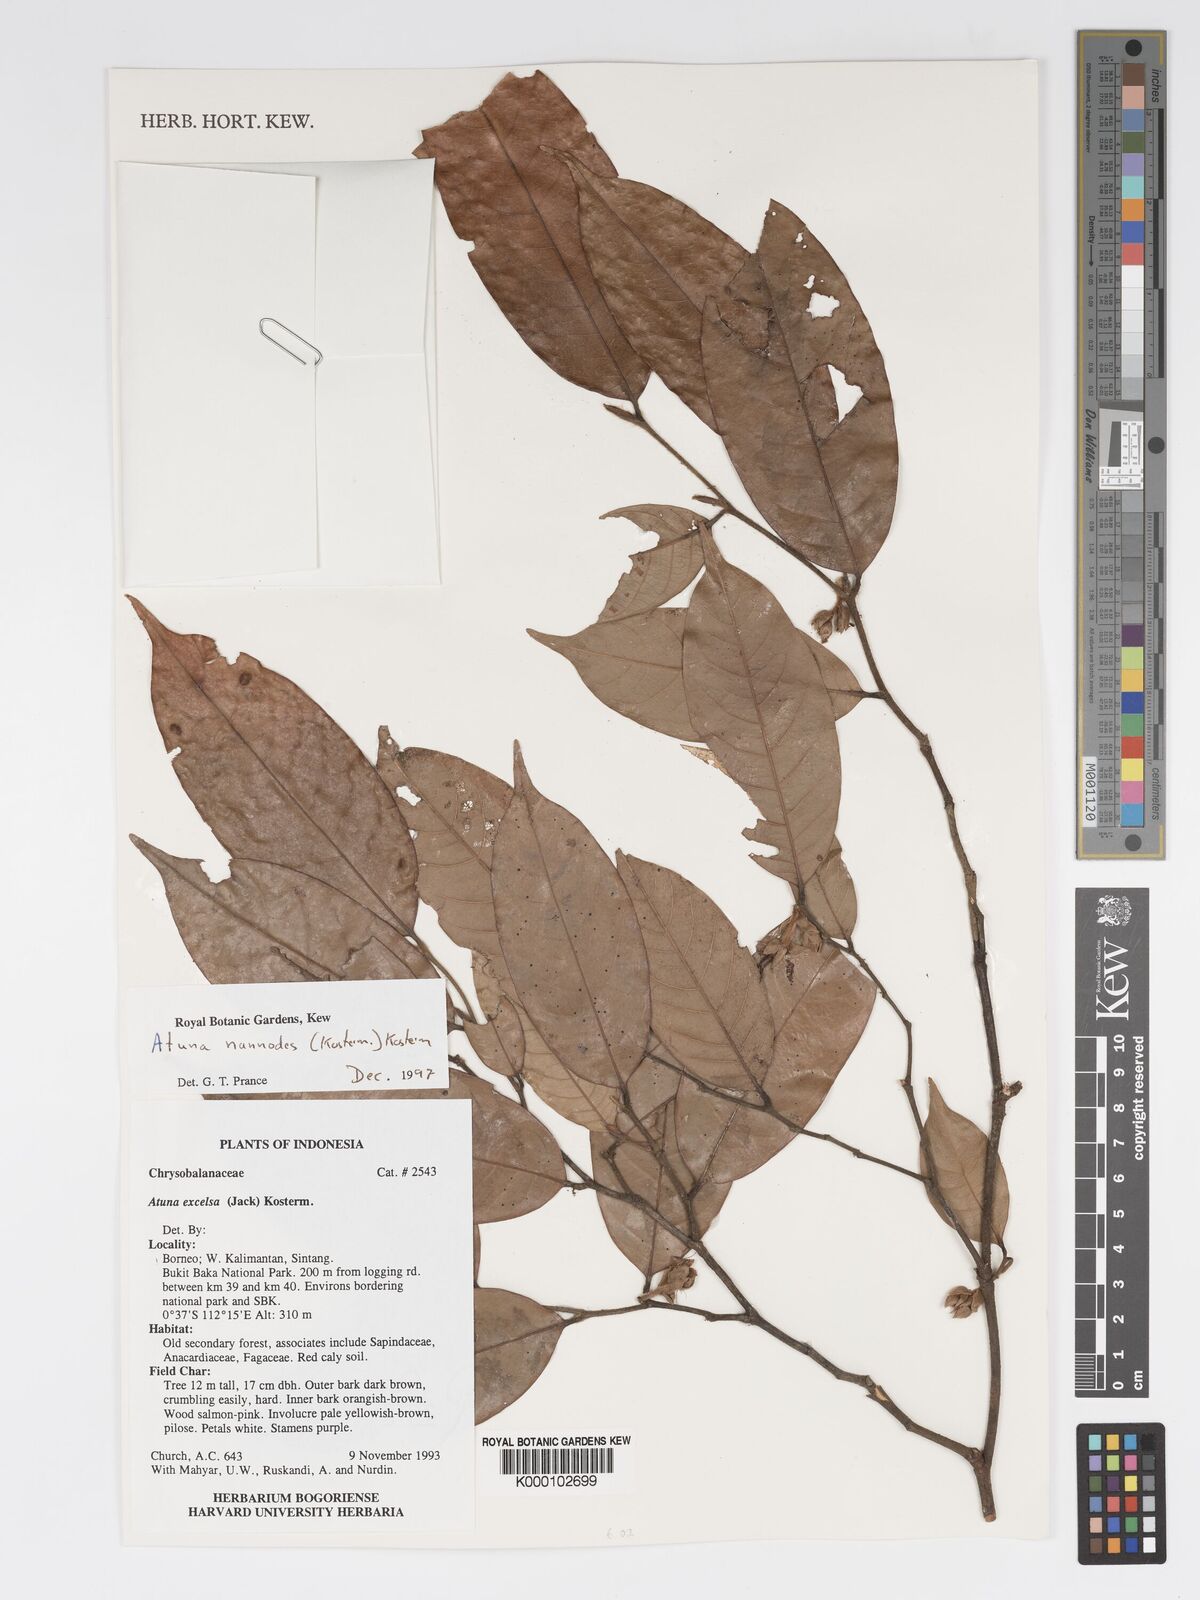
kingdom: Plantae
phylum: Tracheophyta
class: Magnoliopsida
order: Malpighiales
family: Chrysobalanaceae
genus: Atuna
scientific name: Atuna nannodes
